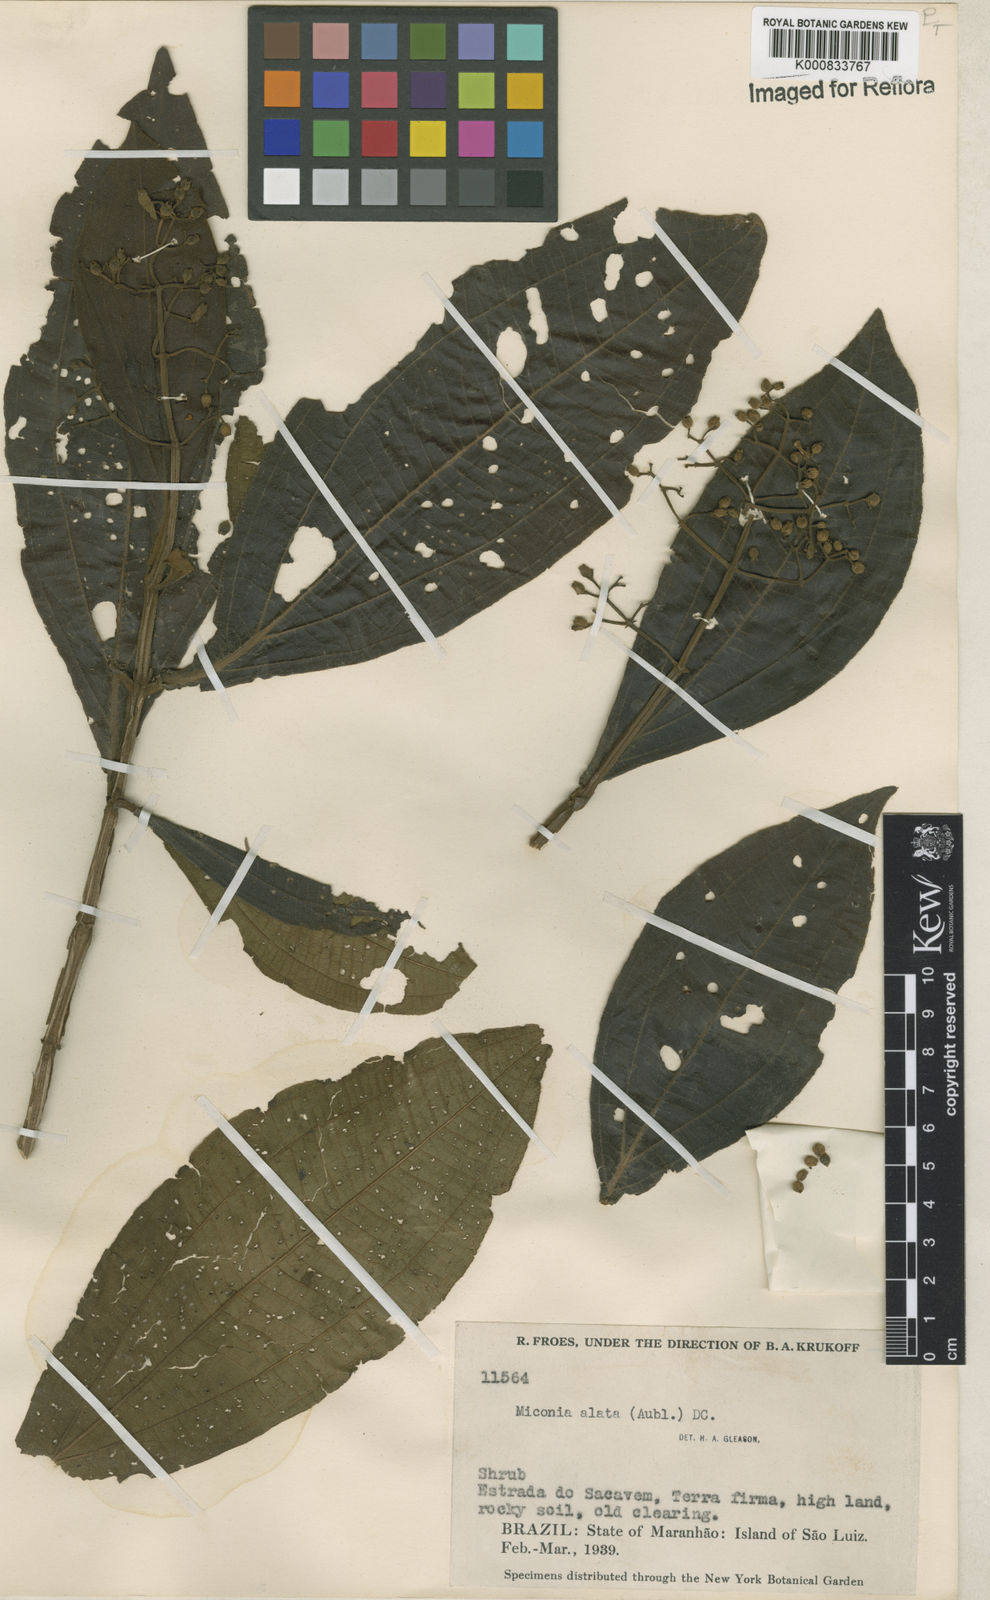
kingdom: Plantae
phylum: Tracheophyta
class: Magnoliopsida
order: Myrtales
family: Melastomataceae
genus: Miconia
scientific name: Miconia alata
